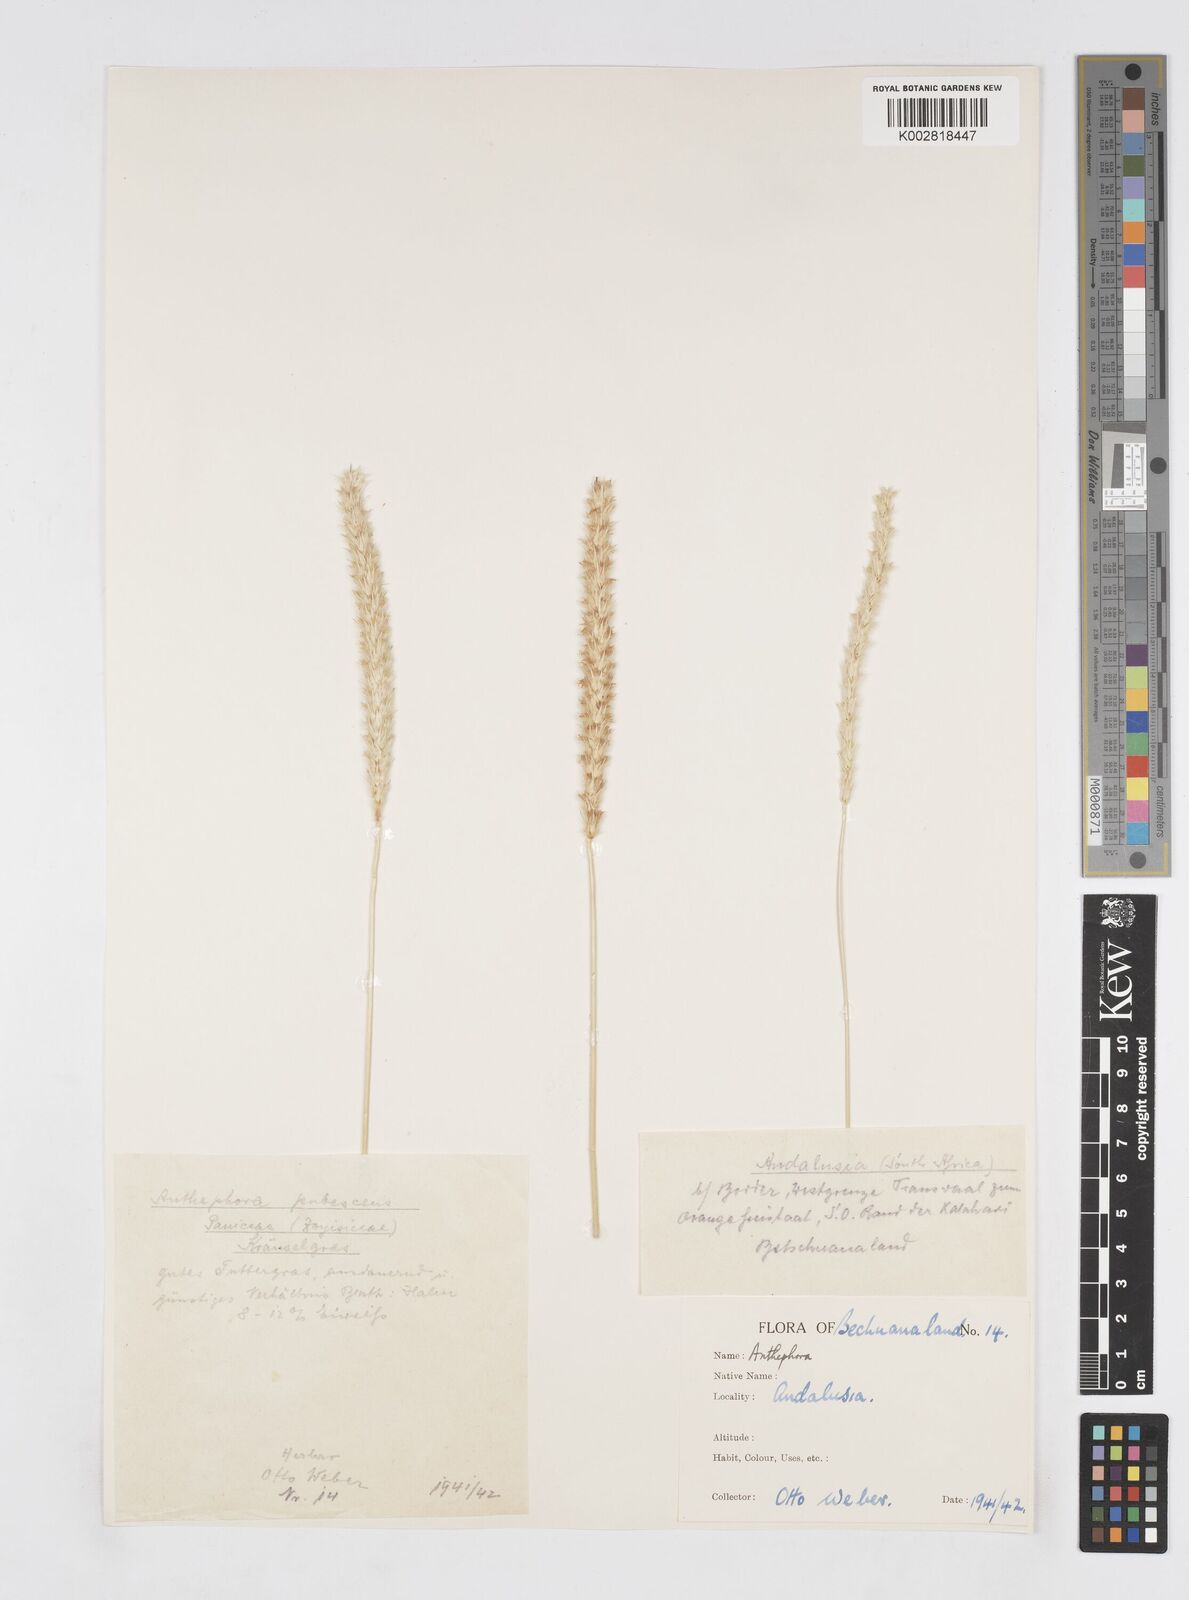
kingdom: Plantae
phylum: Tracheophyta
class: Liliopsida
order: Poales
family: Poaceae
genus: Anthephora
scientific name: Anthephora pubescens
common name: Wool grass
